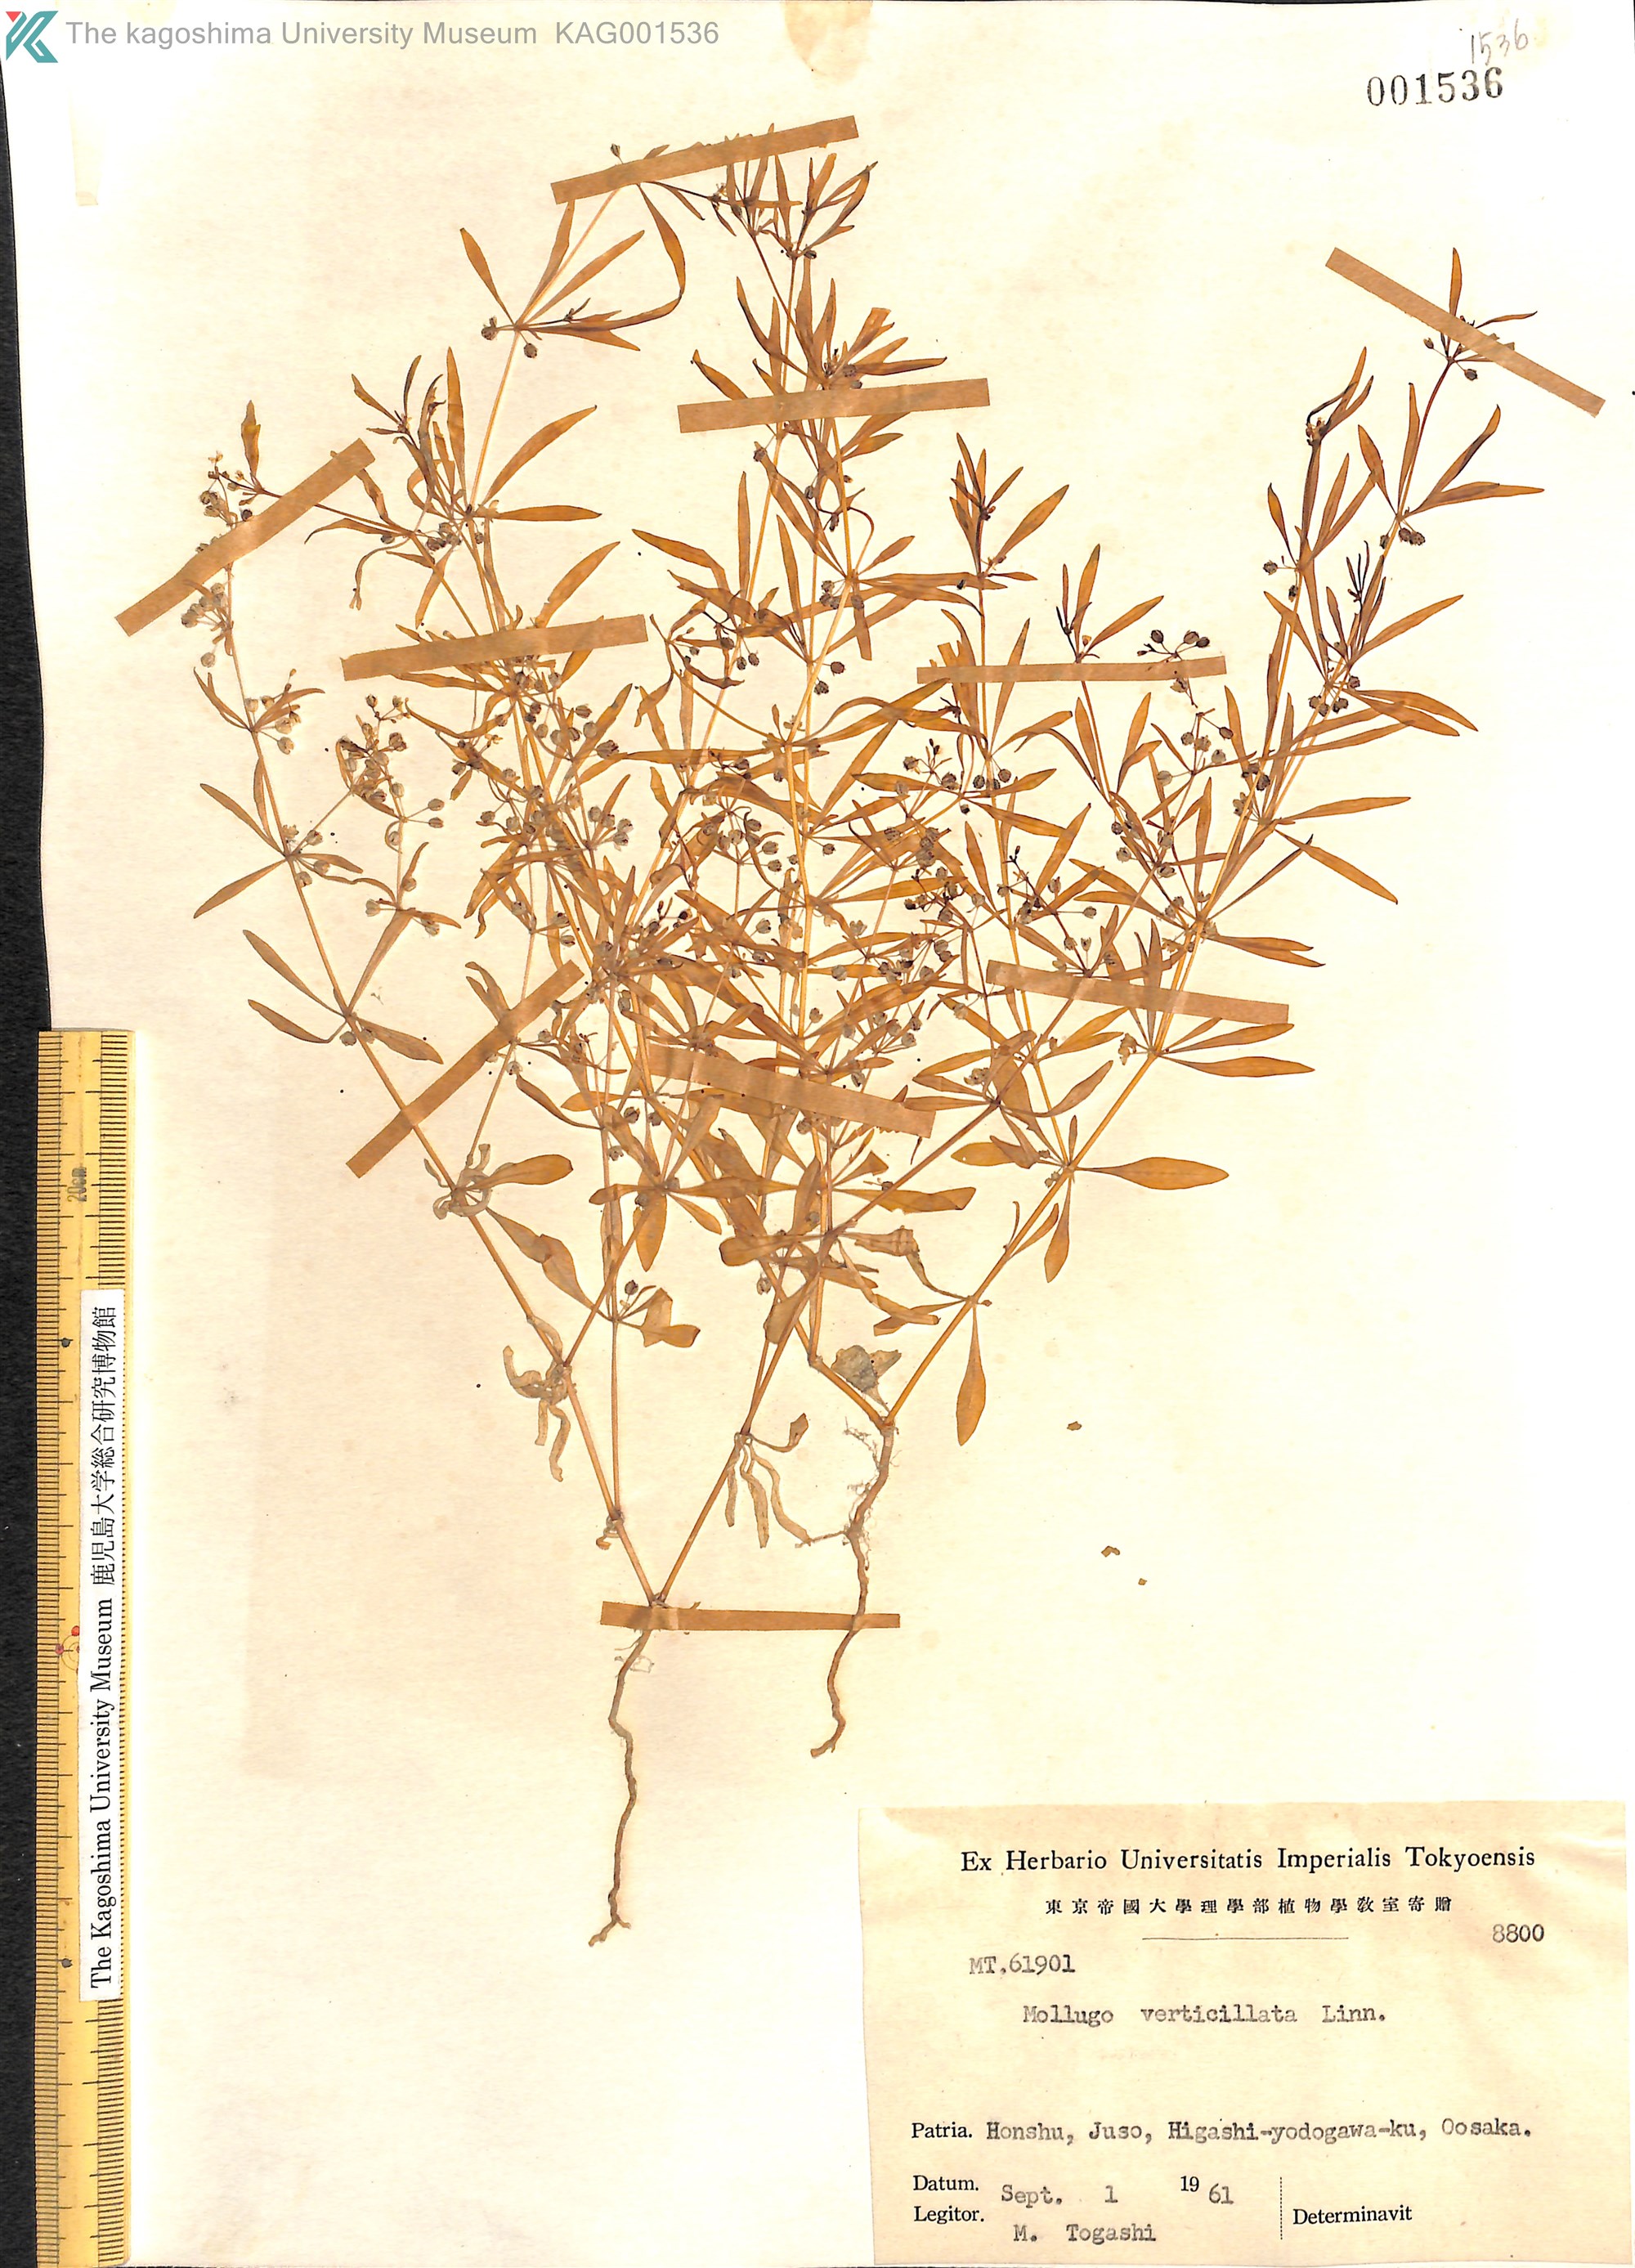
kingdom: Plantae
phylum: Tracheophyta
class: Magnoliopsida
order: Caryophyllales
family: Molluginaceae
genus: Mollugo
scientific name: Mollugo verticillata
